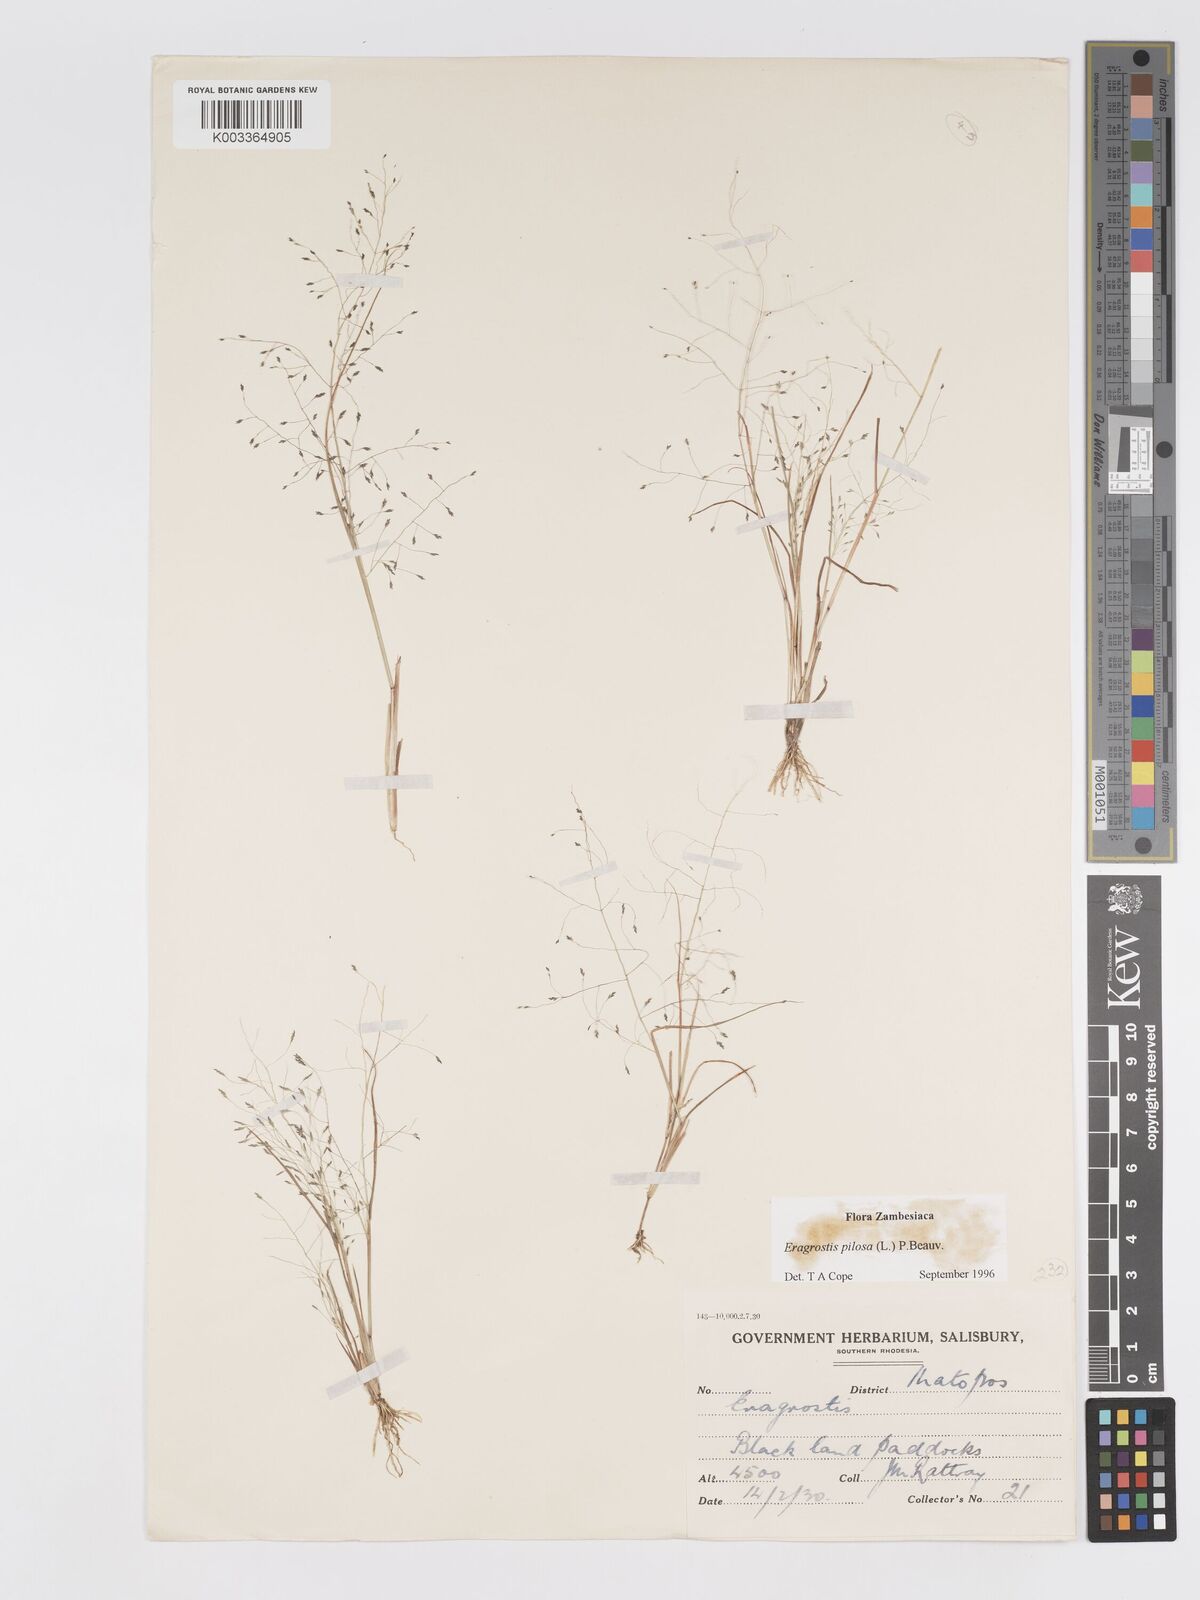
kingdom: Plantae
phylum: Tracheophyta
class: Liliopsida
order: Poales
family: Poaceae
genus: Eragrostis
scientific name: Eragrostis pilosa
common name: Indian lovegrass
